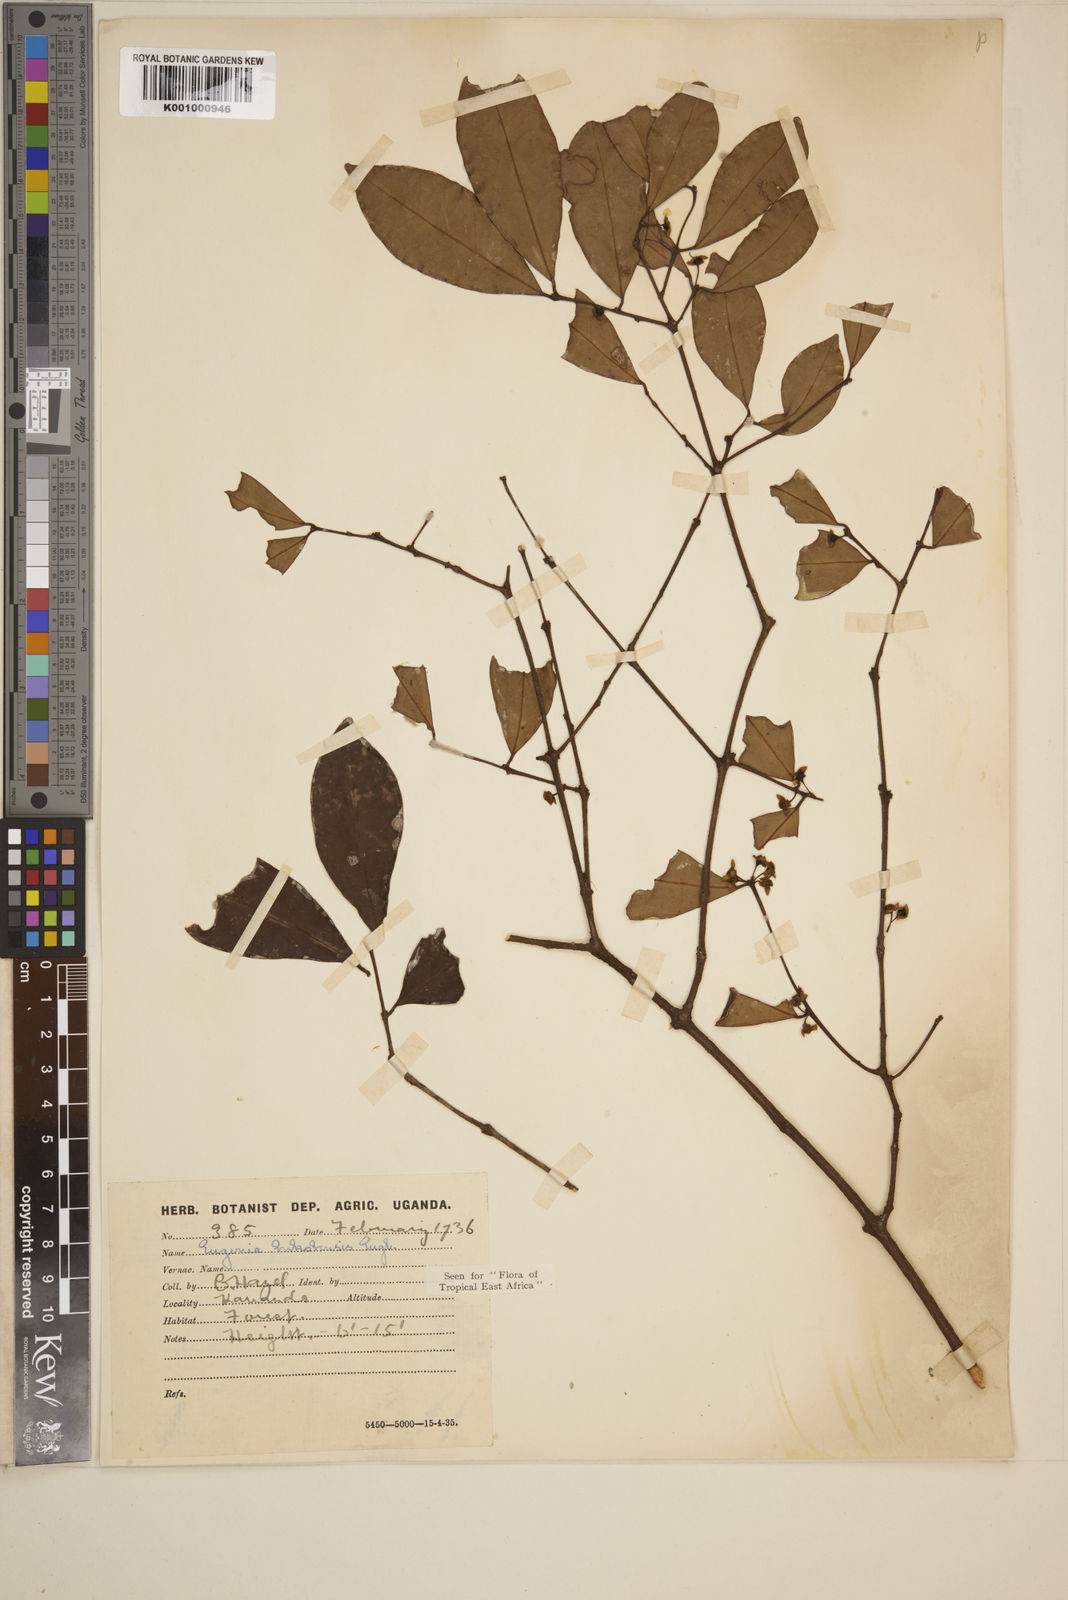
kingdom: Plantae
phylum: Tracheophyta
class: Magnoliopsida
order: Myrtales
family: Myrtaceae
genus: Eugenia
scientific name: Eugenia bukobensis
